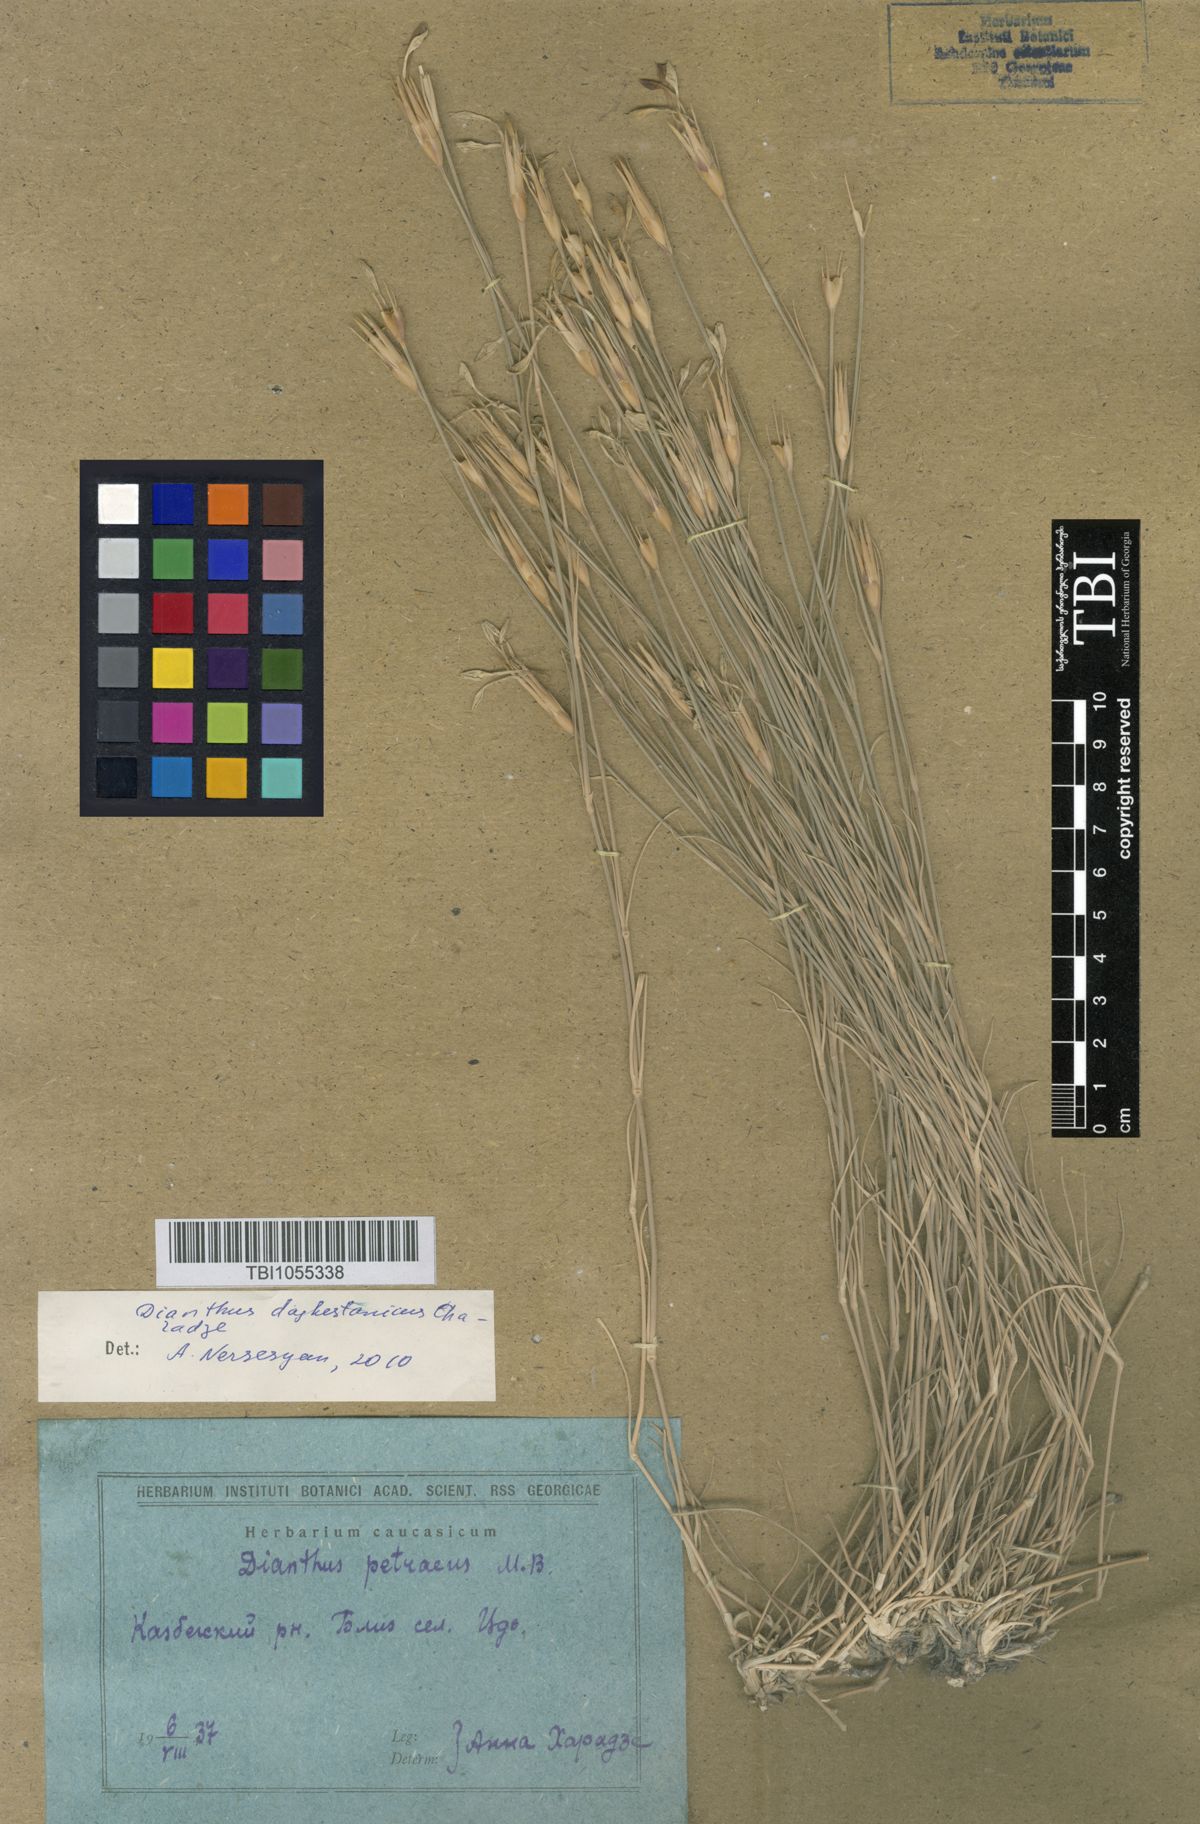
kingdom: Plantae
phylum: Tracheophyta
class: Magnoliopsida
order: Caryophyllales
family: Caryophyllaceae
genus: Dianthus
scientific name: Dianthus cretaceus
